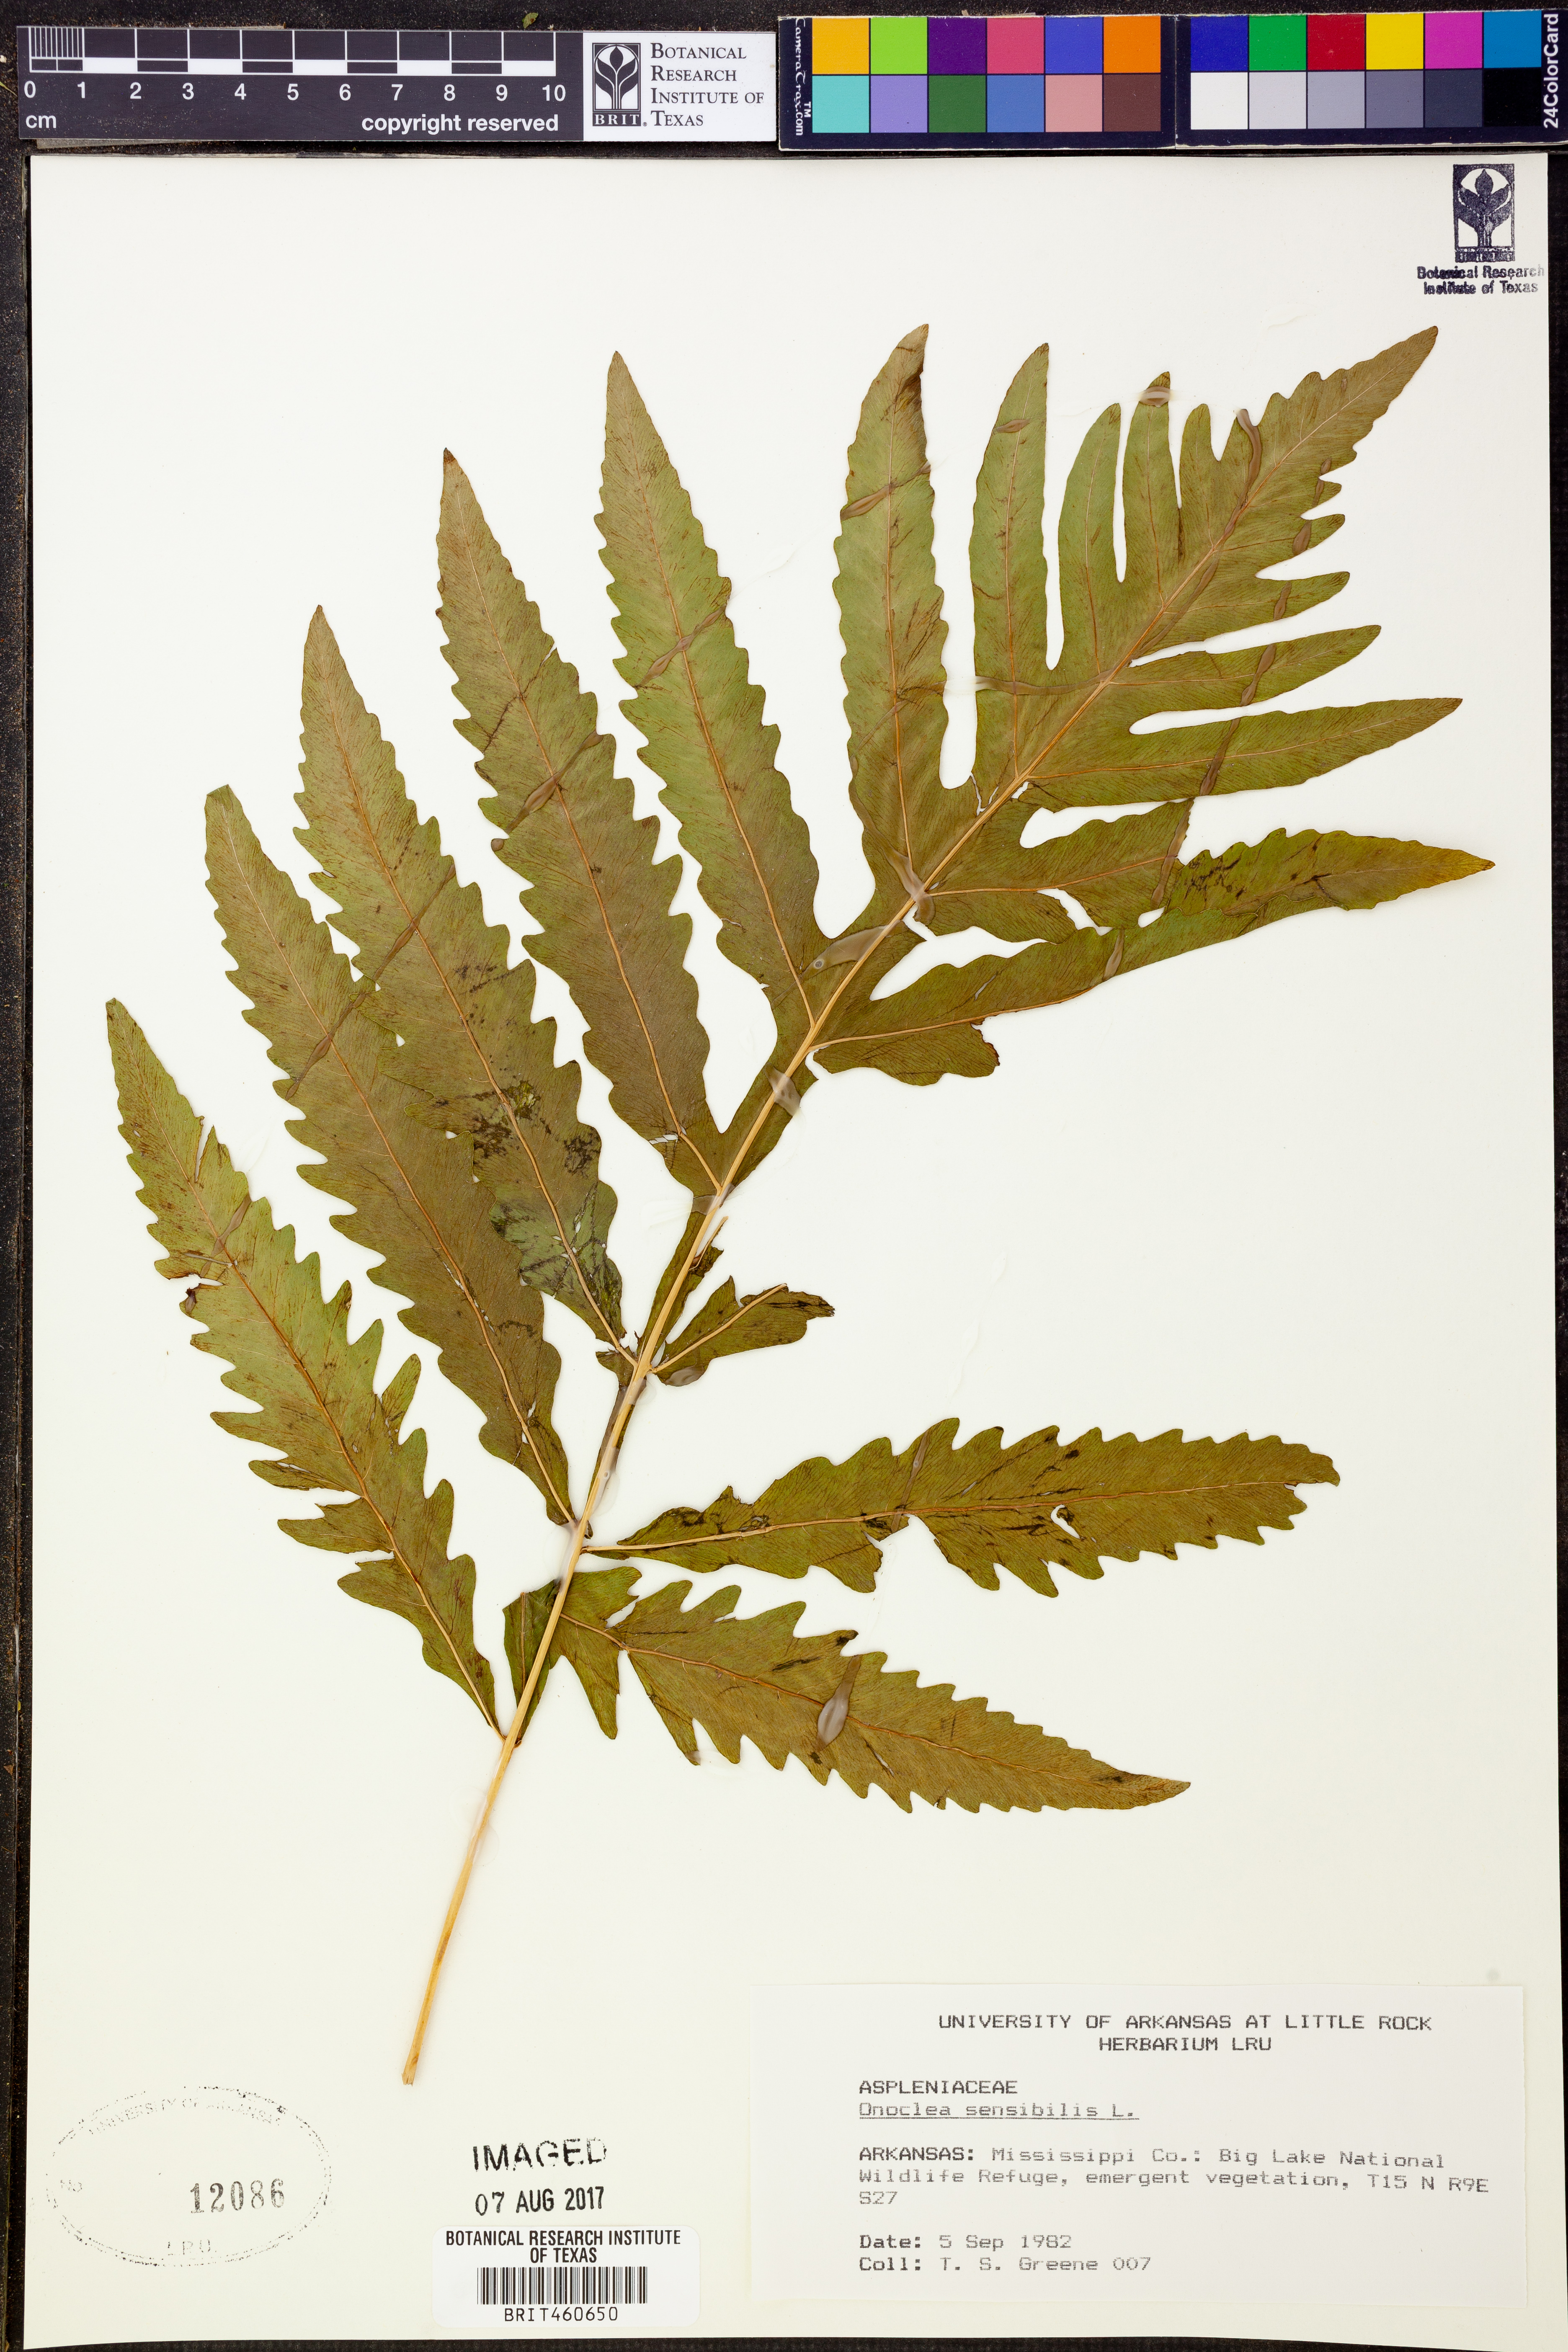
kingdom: Plantae
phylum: Tracheophyta
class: Polypodiopsida
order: Polypodiales
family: Onocleaceae
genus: Onoclea
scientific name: Onoclea sensibilis
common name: Sensitive fern
